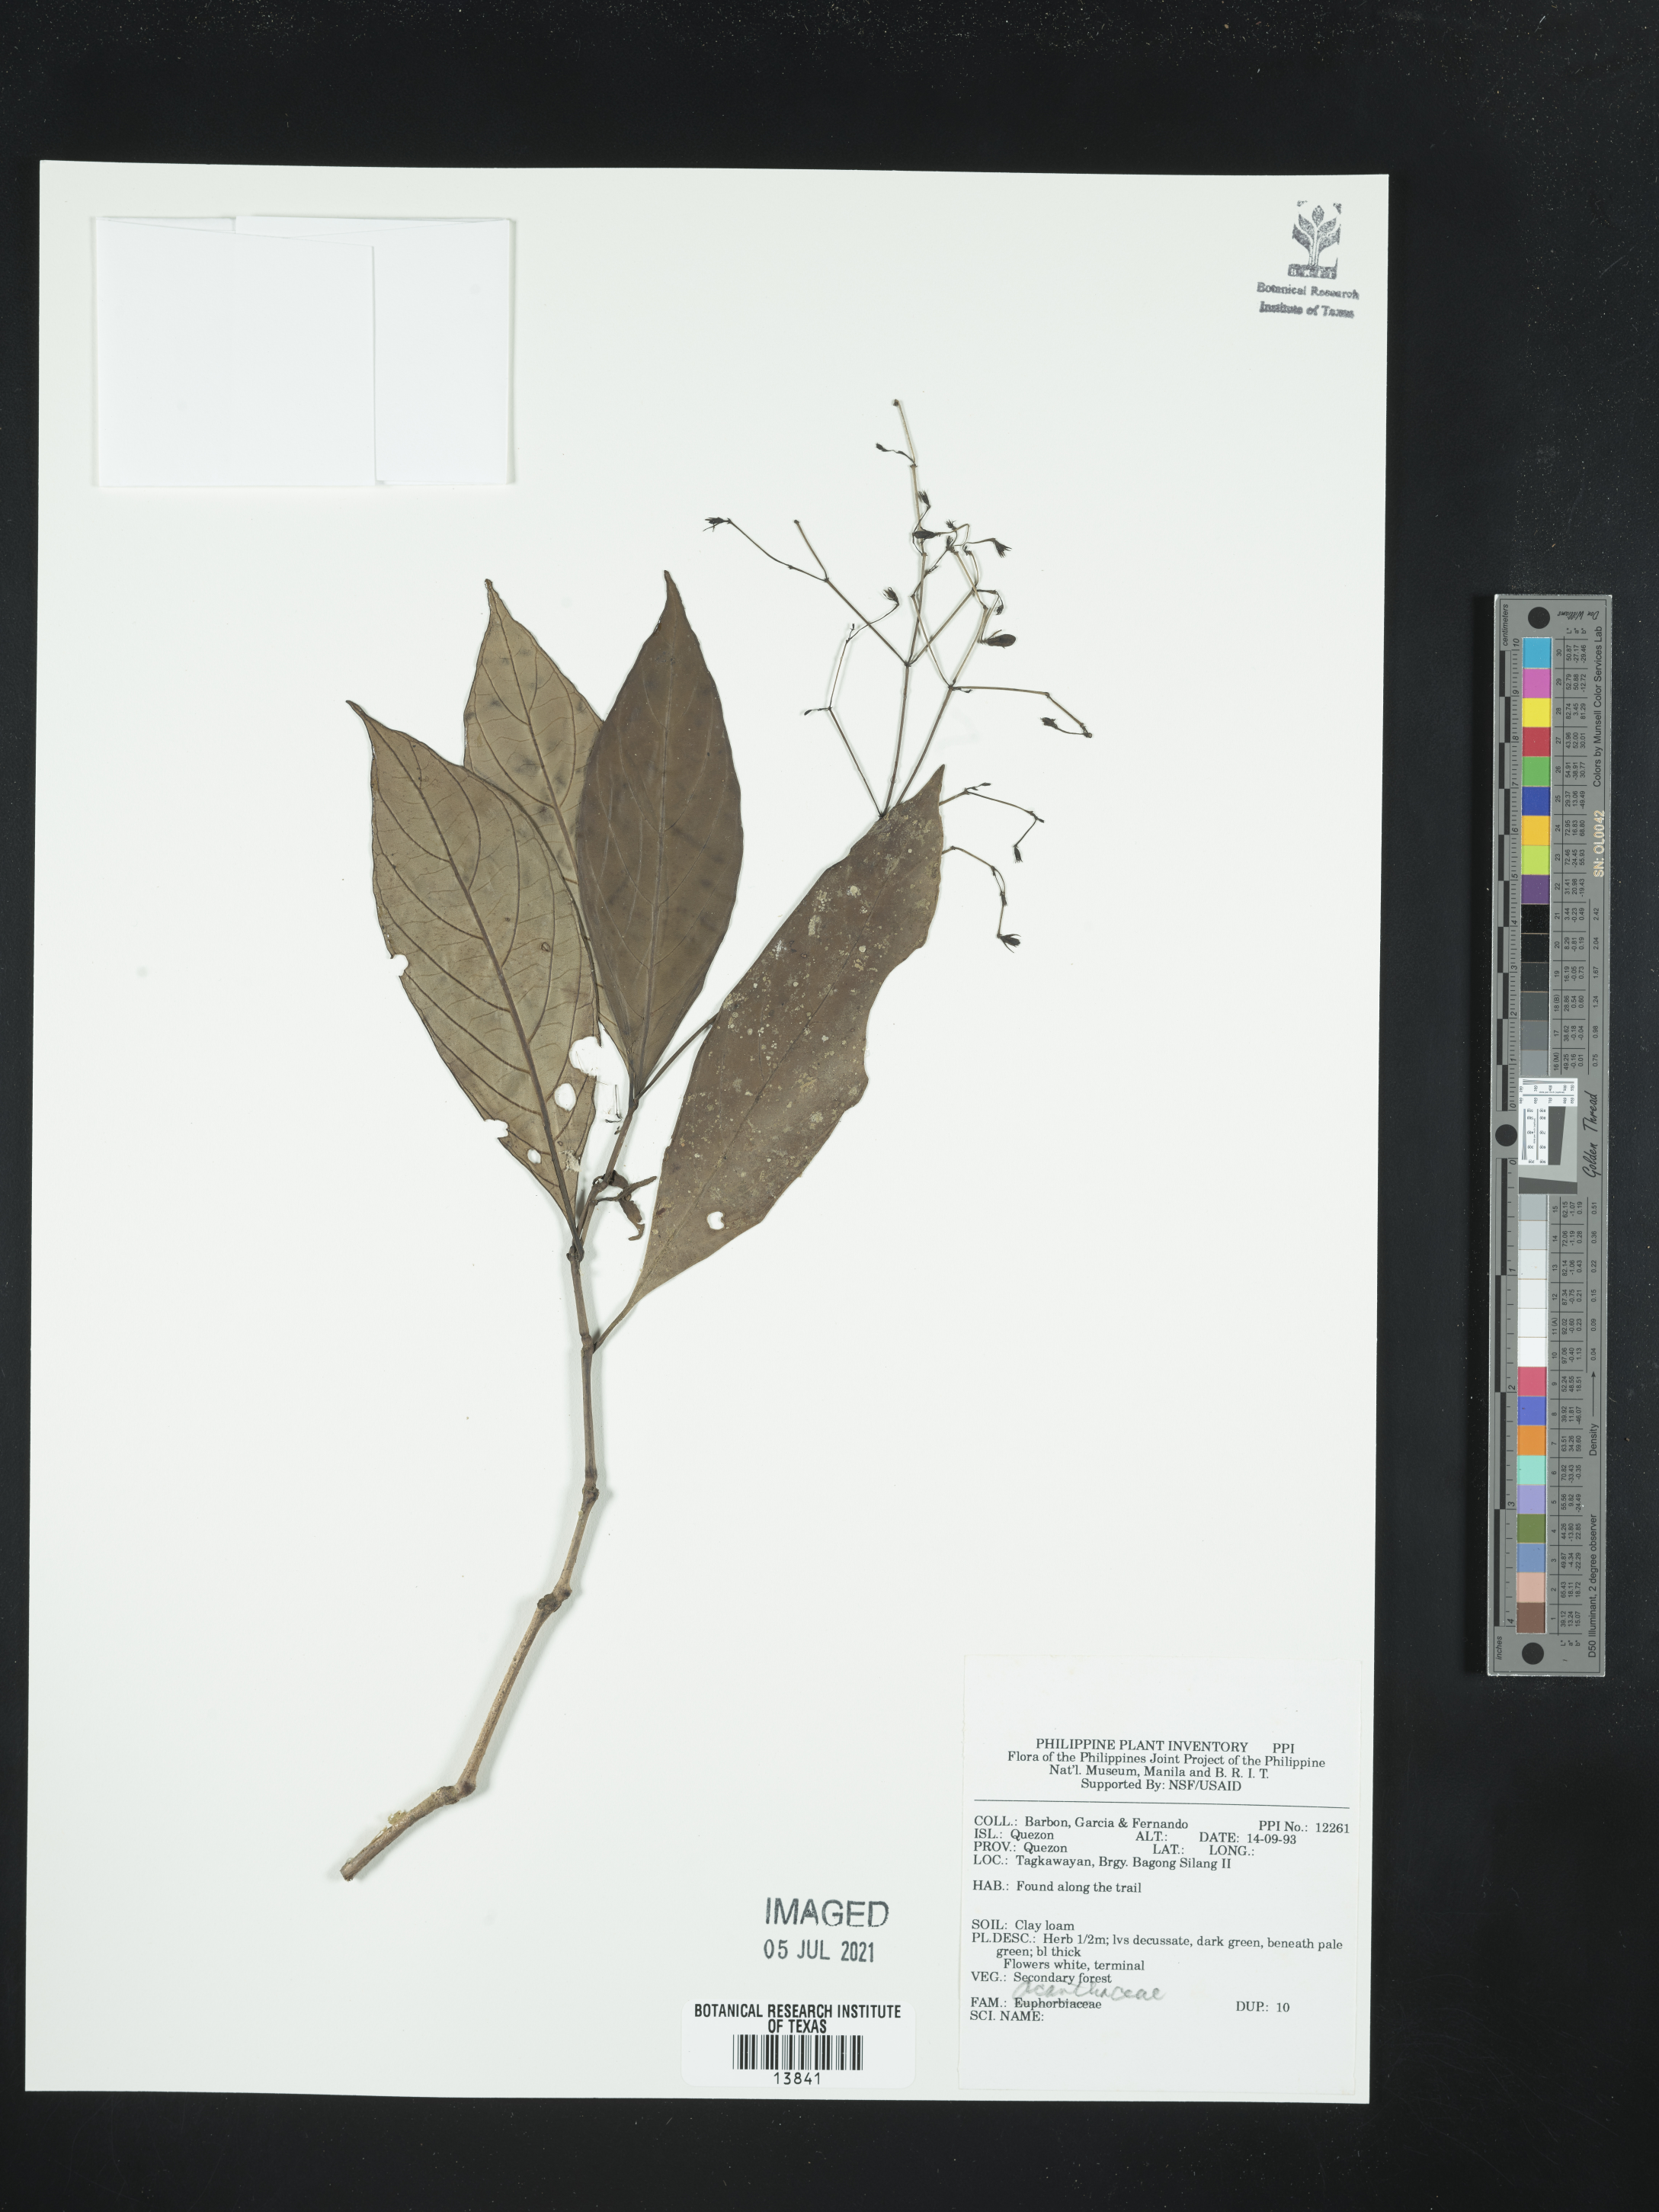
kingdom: Plantae
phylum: Tracheophyta
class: Magnoliopsida
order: Lamiales
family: Acanthaceae
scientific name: Acanthaceae
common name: Acanthaceae
